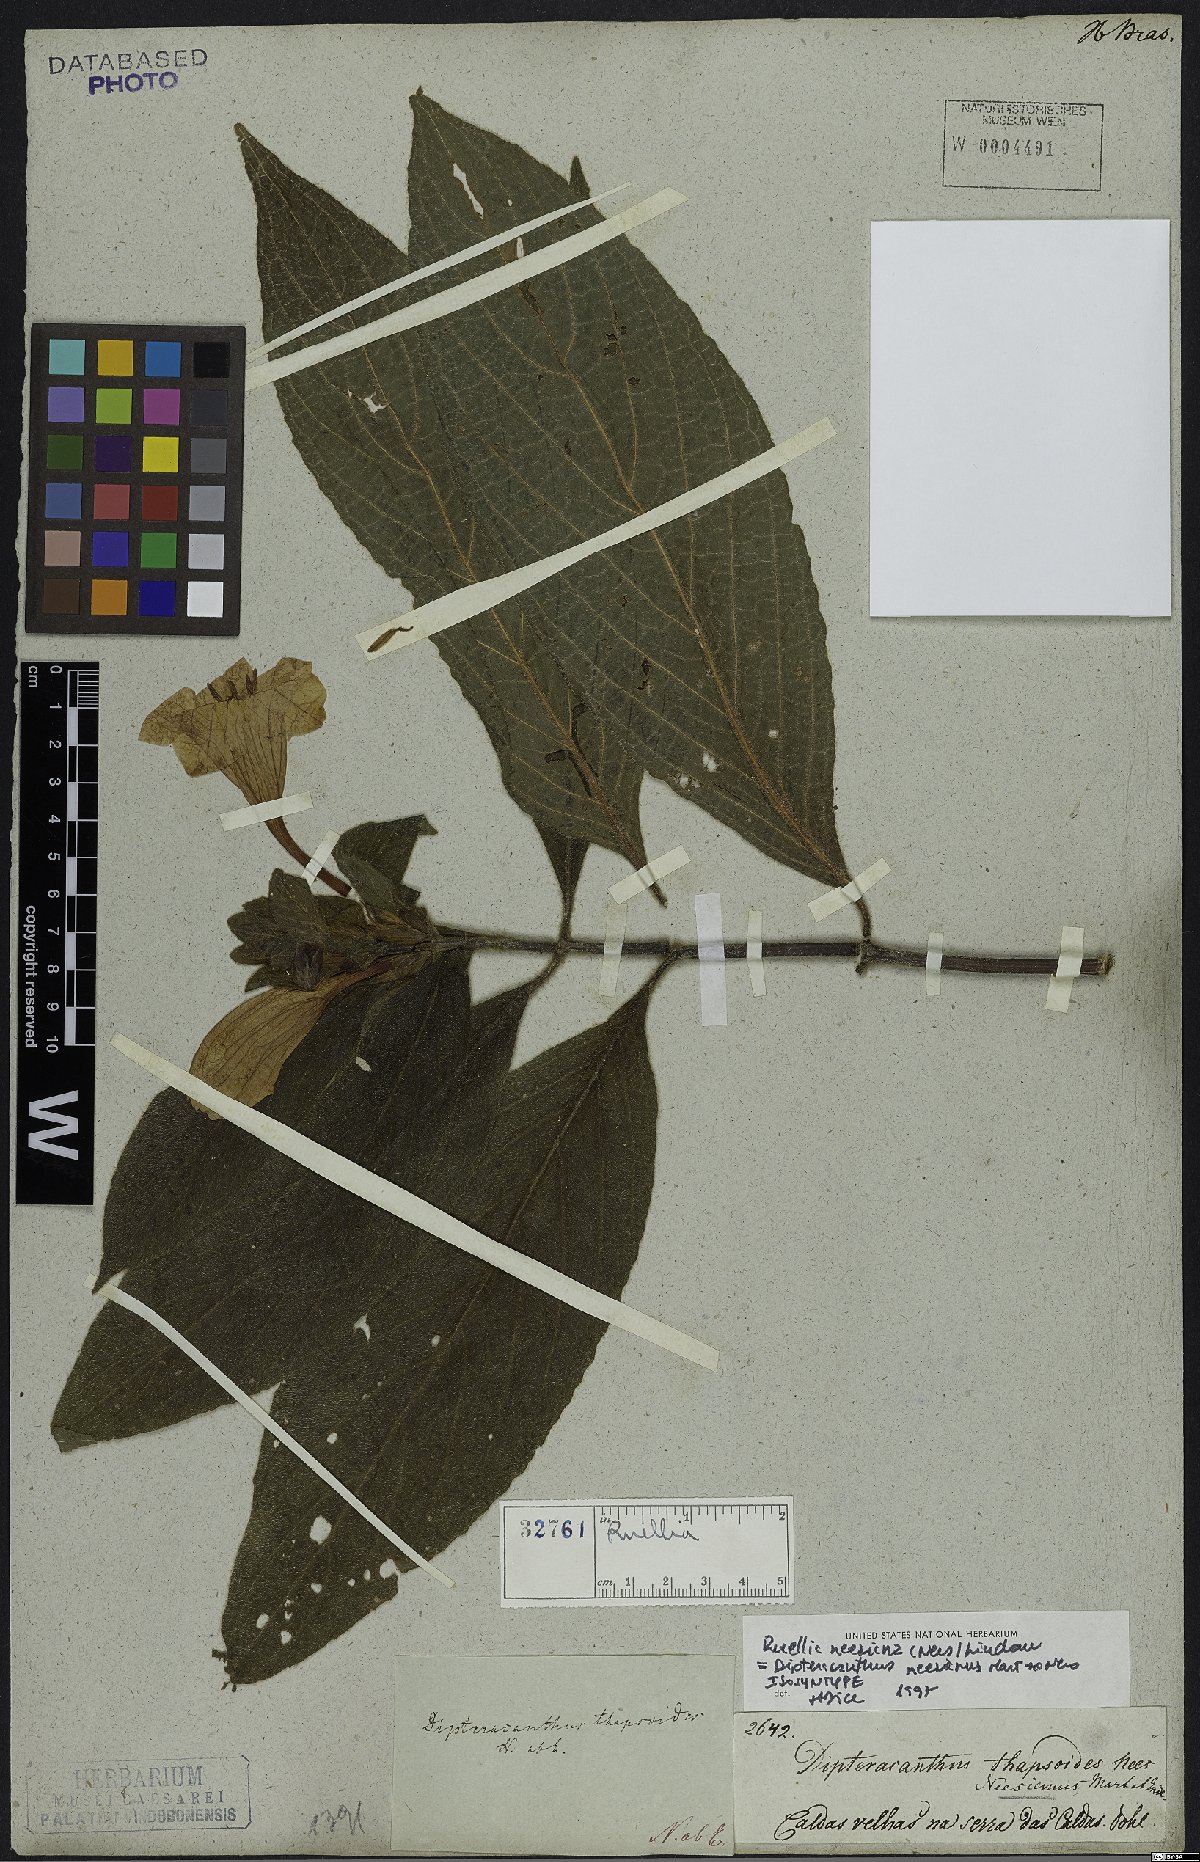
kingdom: Plantae
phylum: Tracheophyta
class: Magnoliopsida
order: Lamiales
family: Acanthaceae
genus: Ruellia
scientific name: Ruellia neesiana
